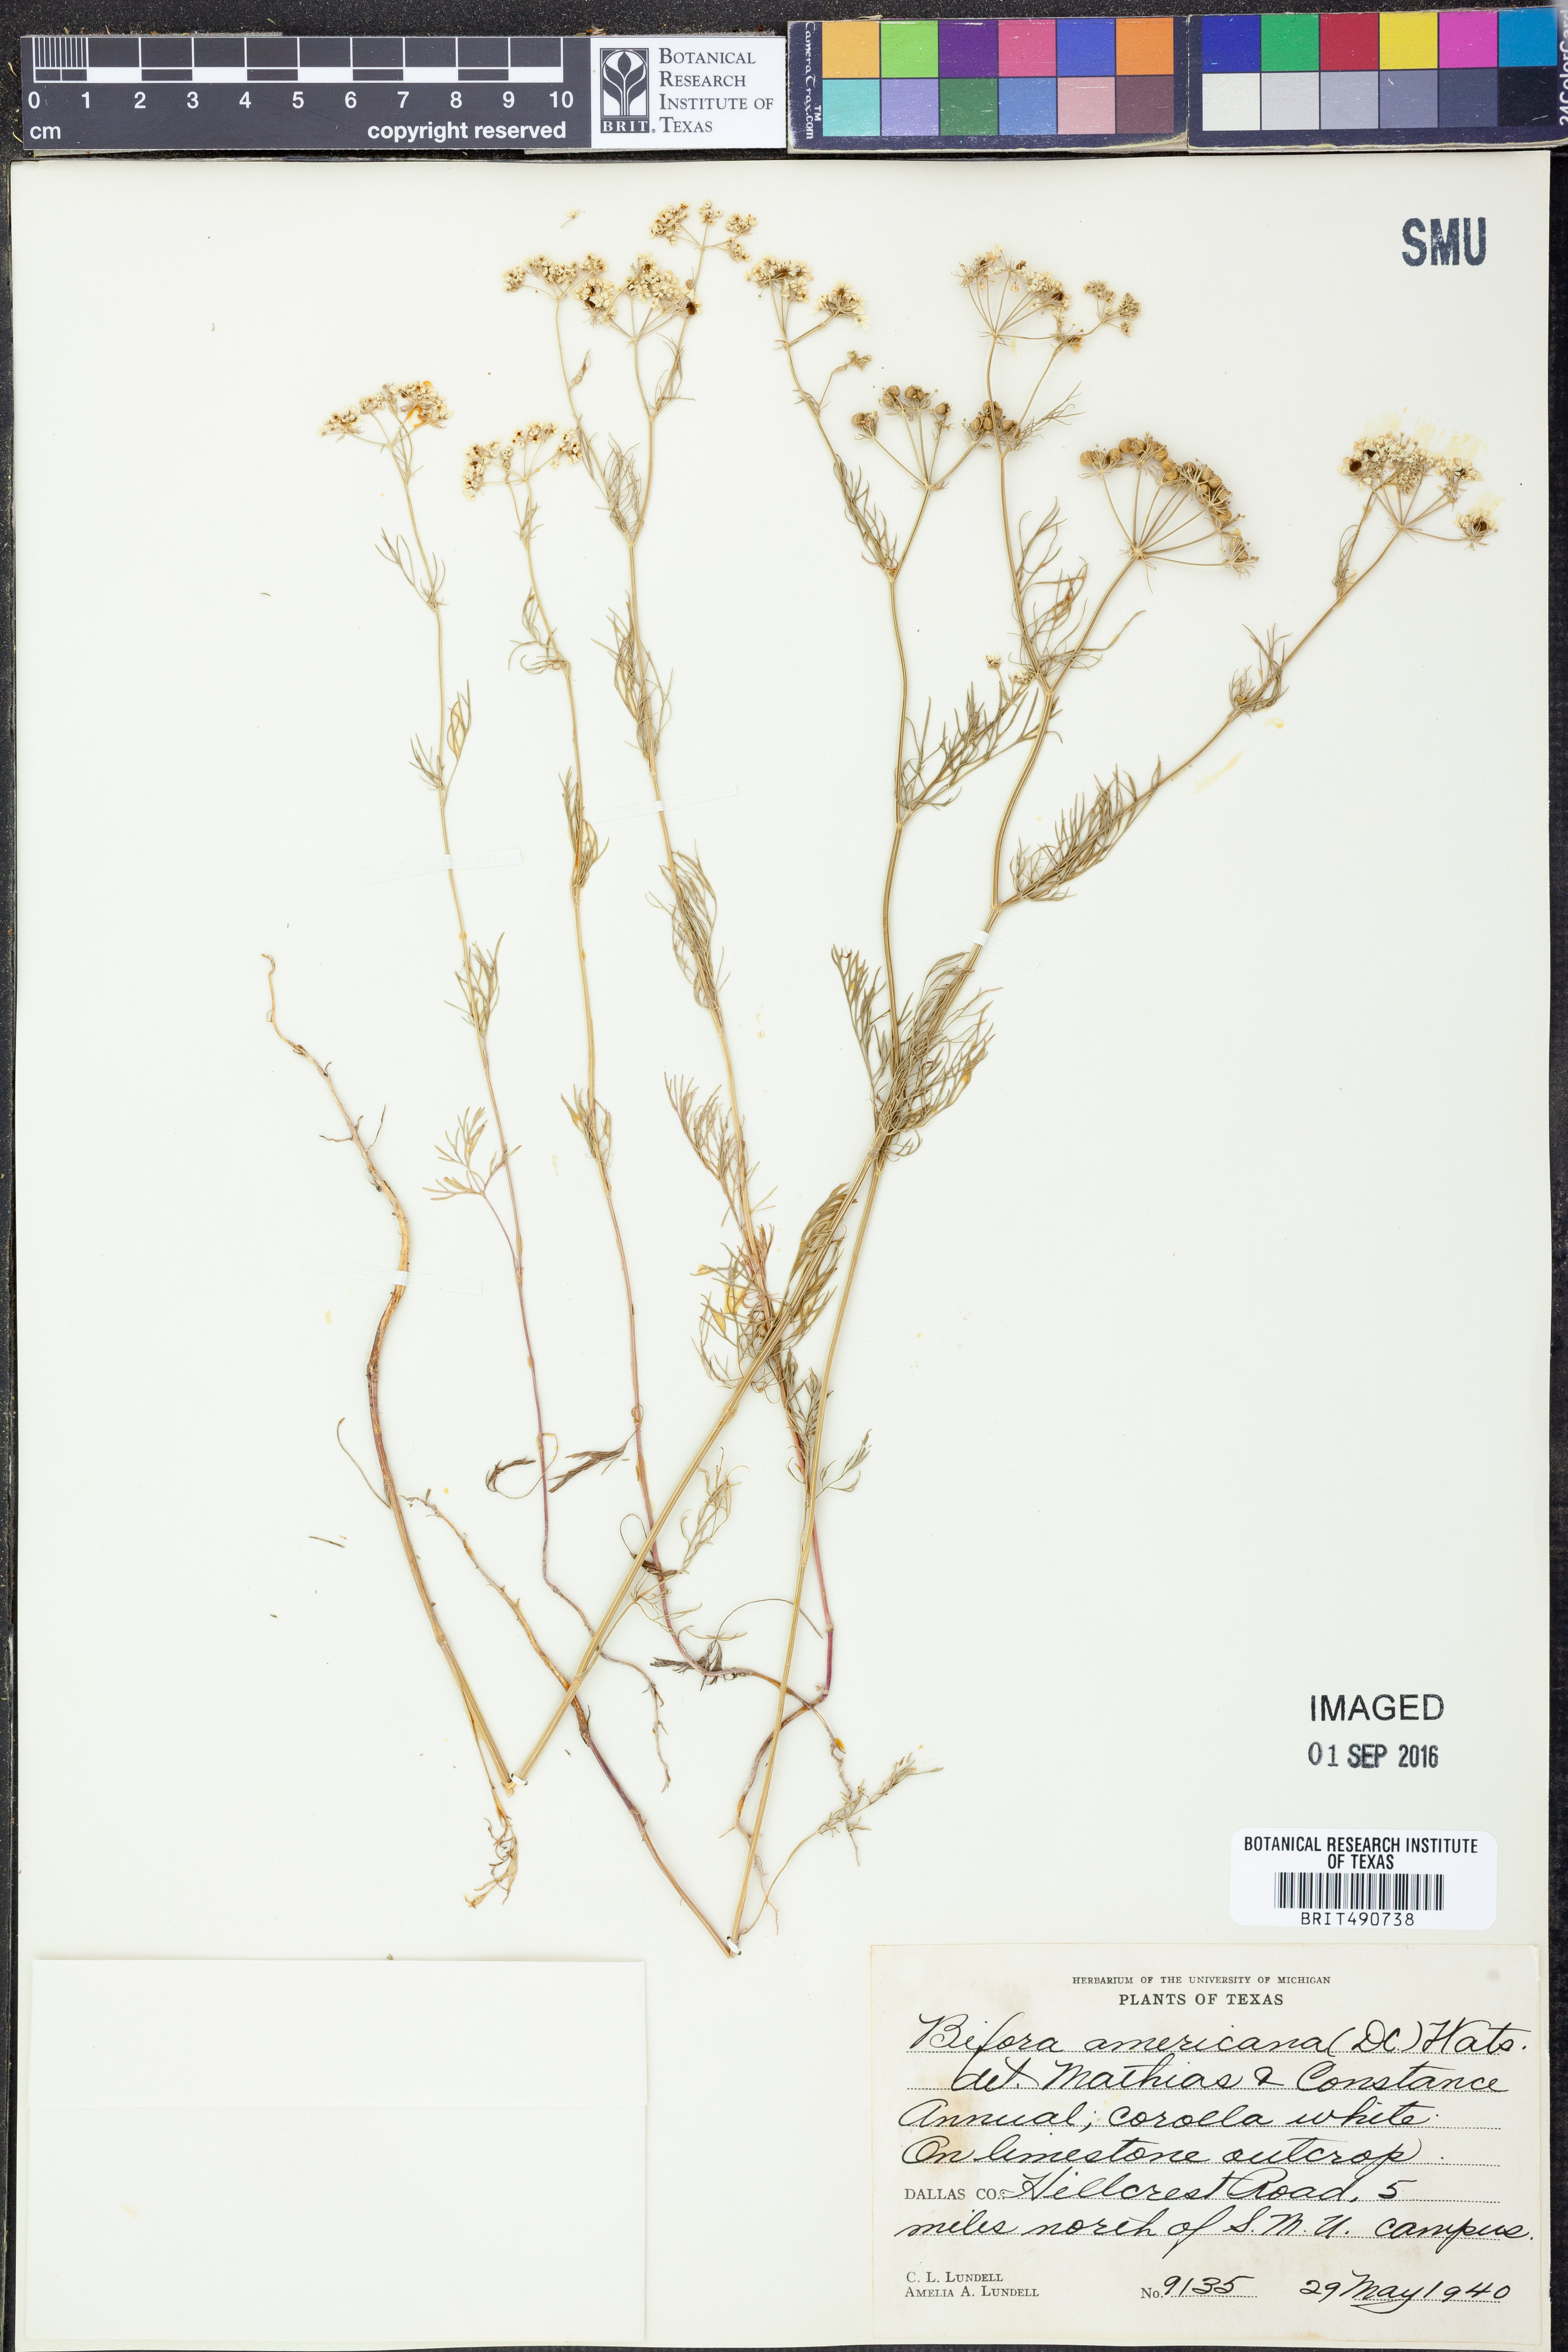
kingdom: Plantae
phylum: Tracheophyta
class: Magnoliopsida
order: Apiales
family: Apiaceae
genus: Atrema
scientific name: Atrema americanum
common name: Prairie-bishop
